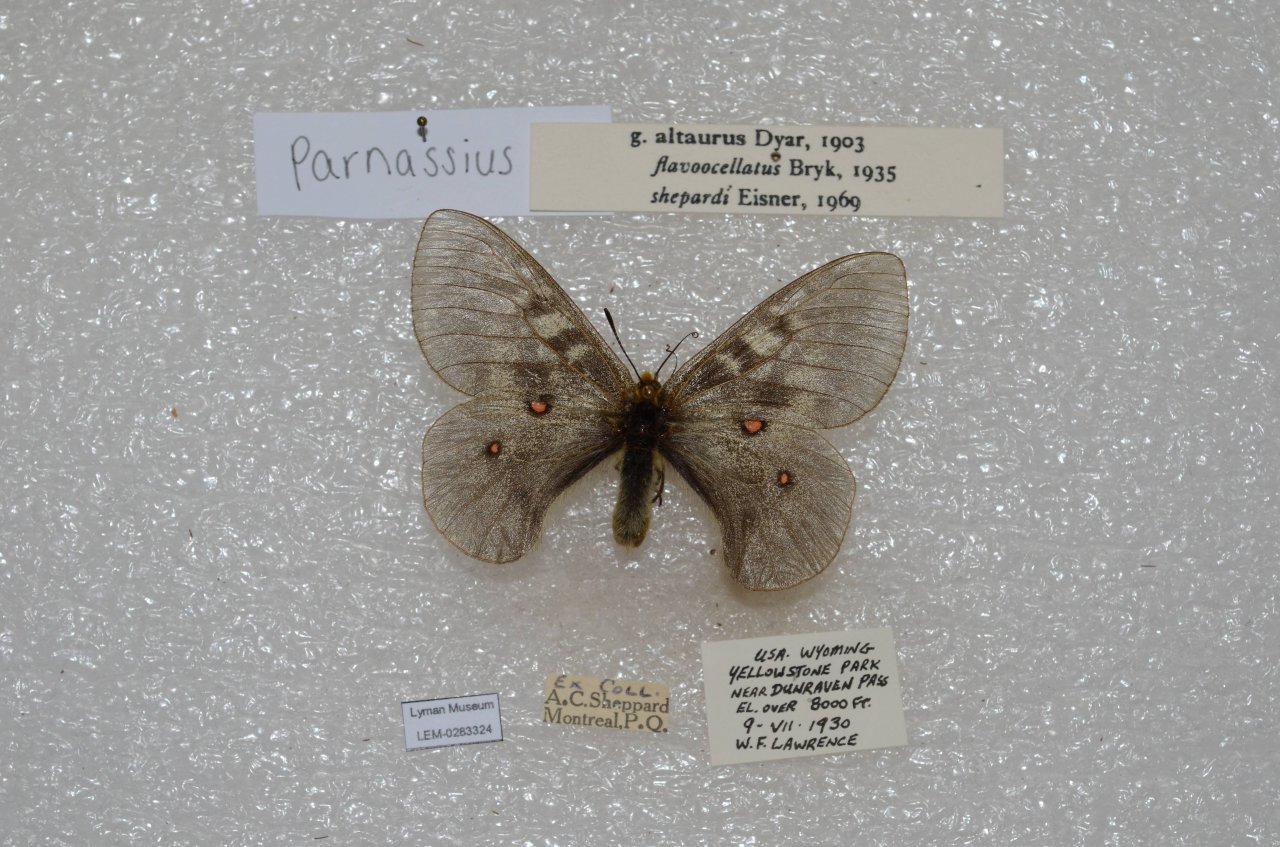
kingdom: Animalia
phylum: Arthropoda
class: Insecta
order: Lepidoptera
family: Papilionidae
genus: Parnassius
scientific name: Parnassius clodius
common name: Clodius Parnassian
